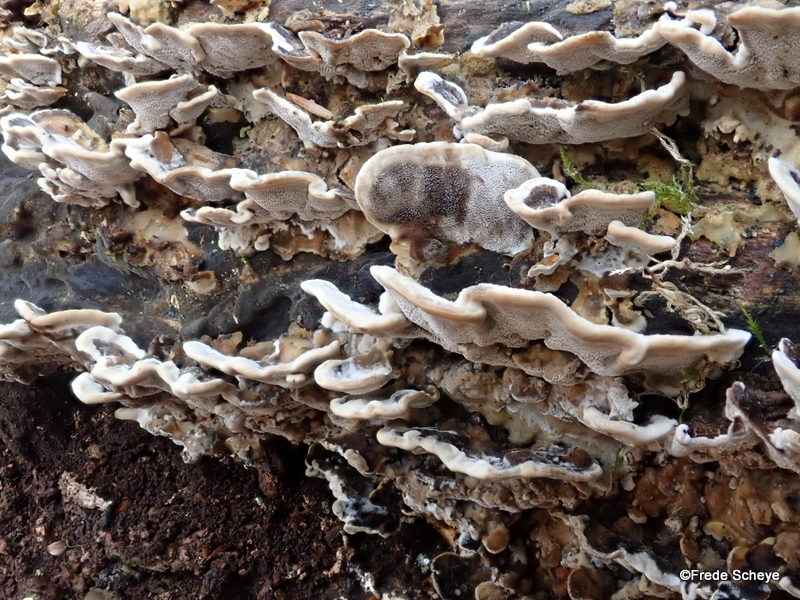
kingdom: Fungi
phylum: Basidiomycota
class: Agaricomycetes
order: Polyporales
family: Phanerochaetaceae
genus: Bjerkandera
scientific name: Bjerkandera adusta
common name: sveden sodporesvamp
